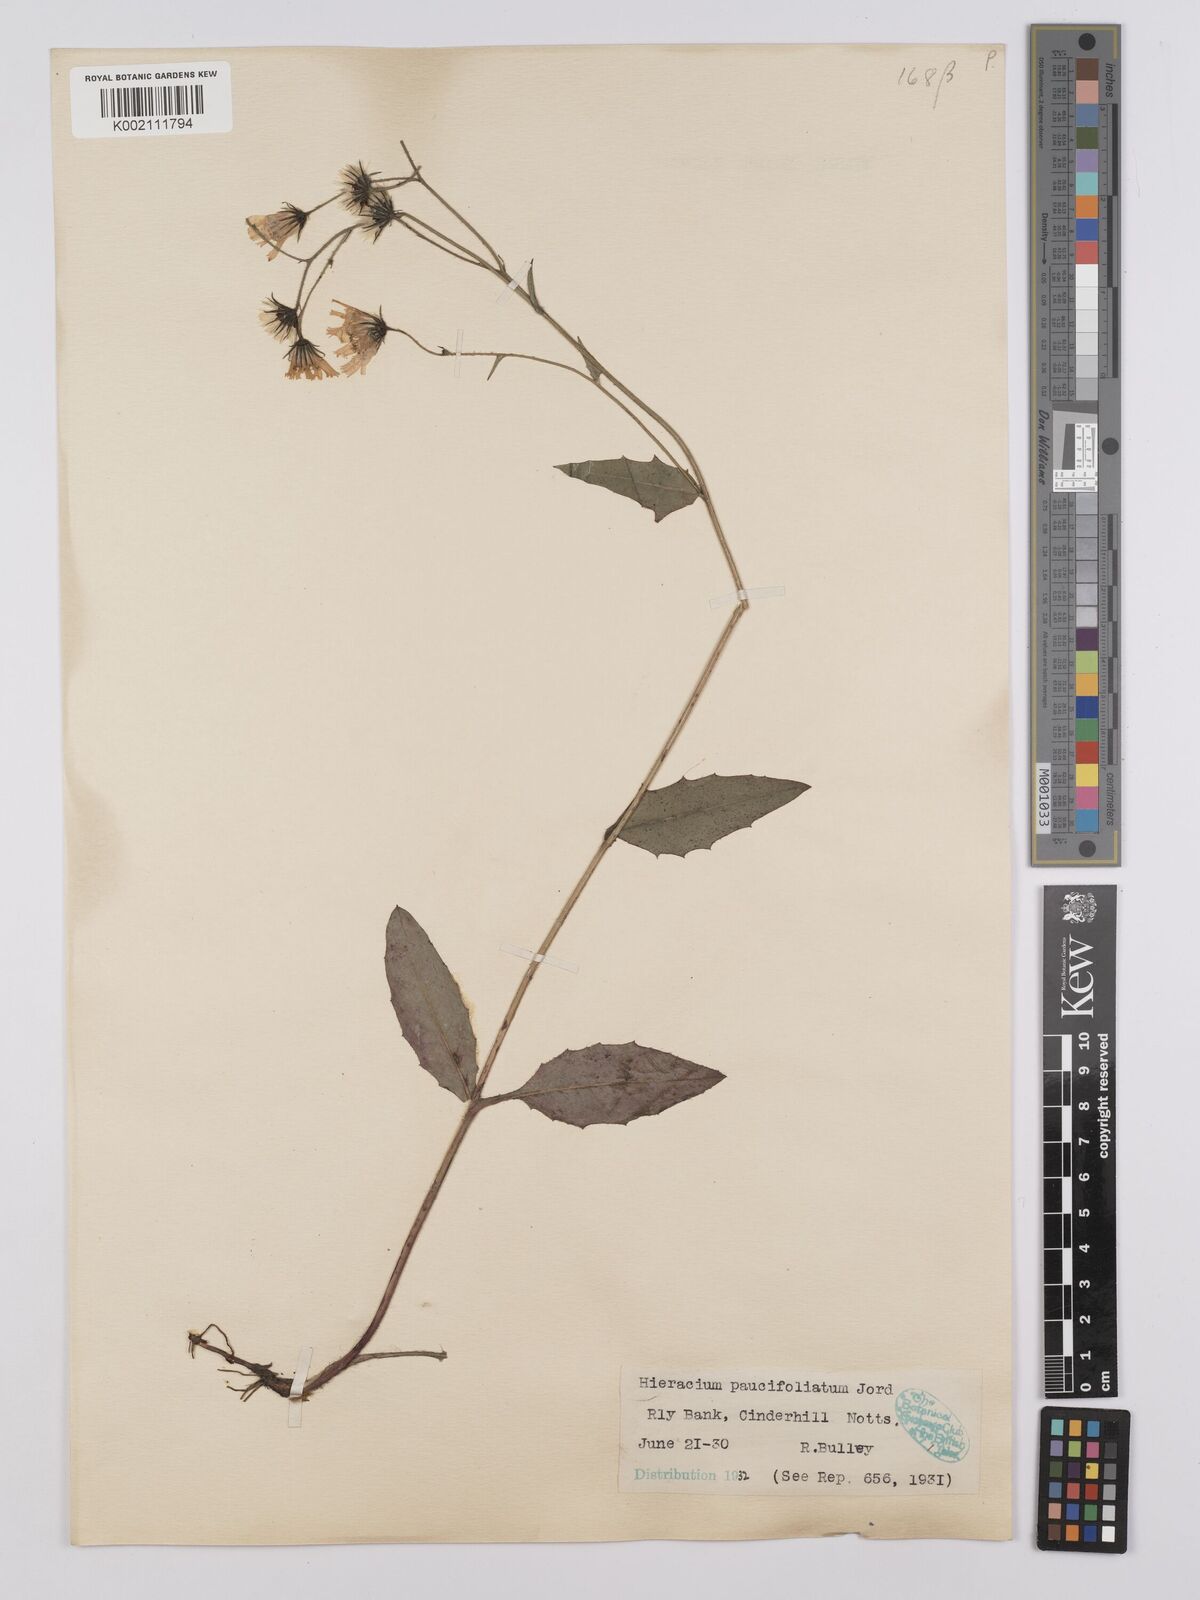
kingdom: Plantae
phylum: Tracheophyta
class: Magnoliopsida
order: Asterales
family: Asteraceae
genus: Hieracium
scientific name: Hieracium lachenalii
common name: Common hawkweed
